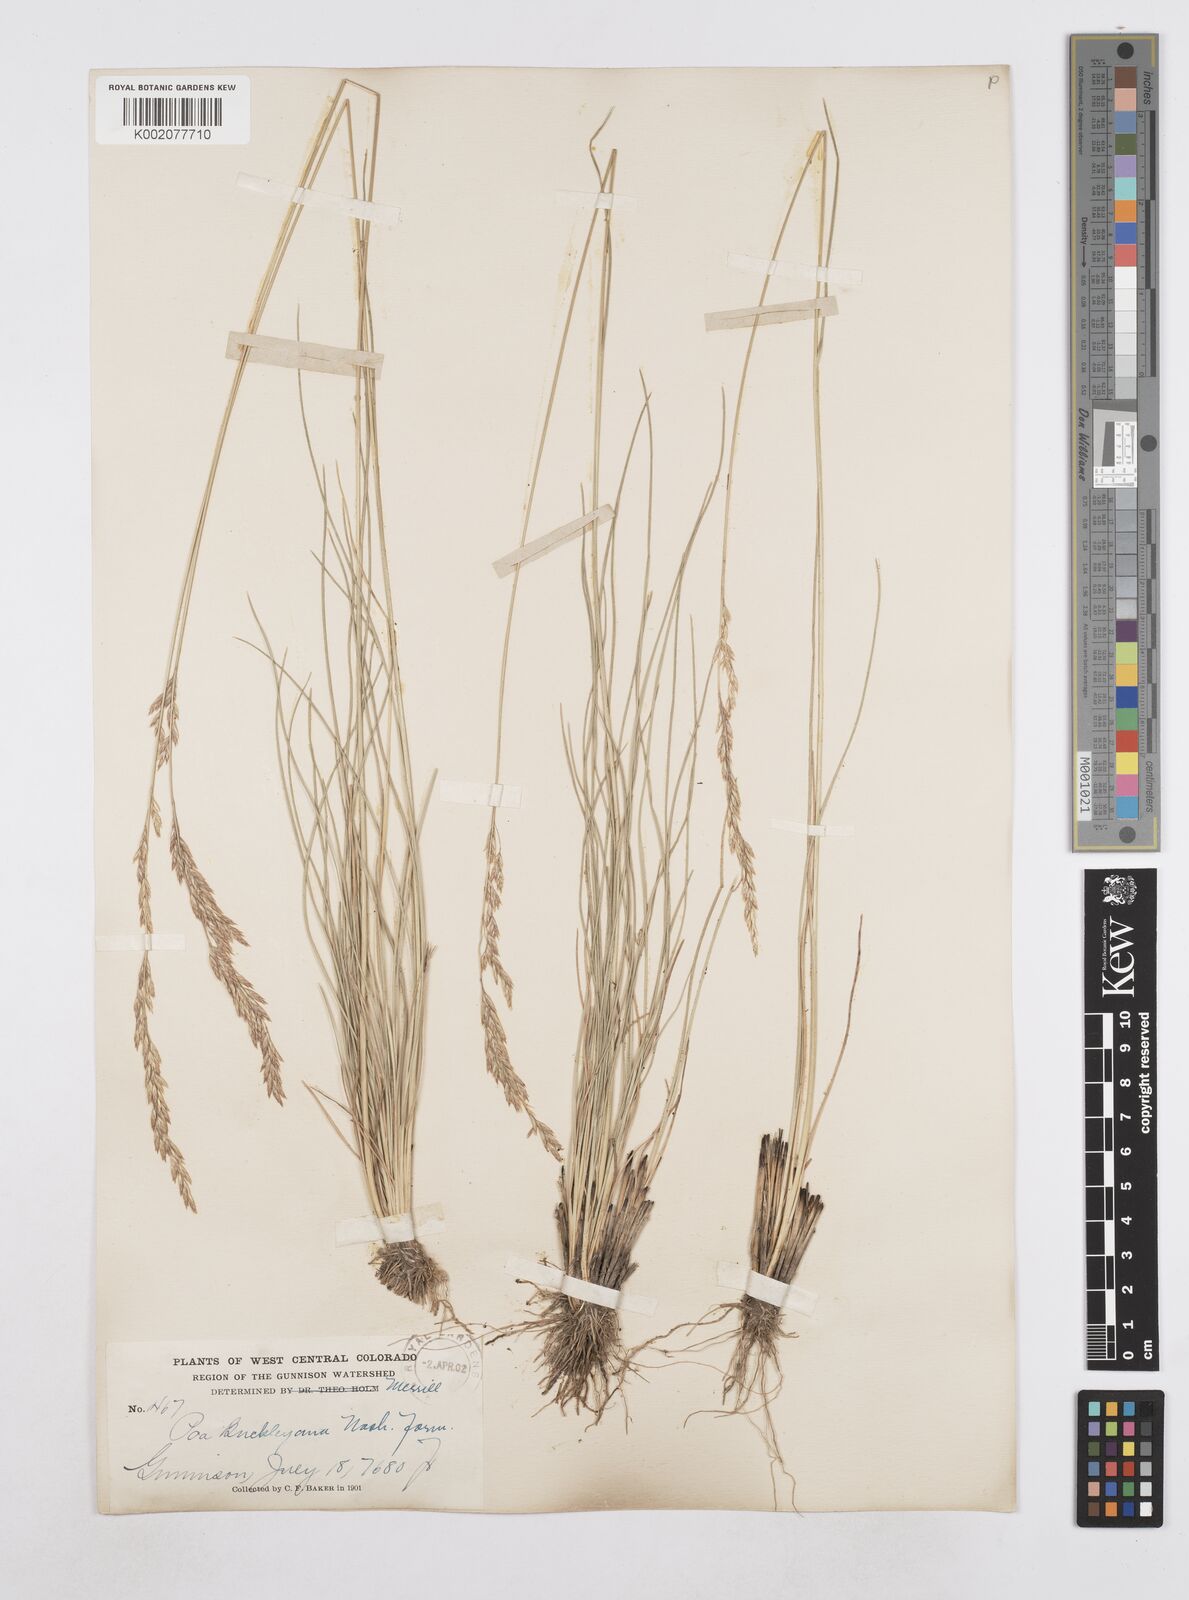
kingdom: Plantae
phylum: Tracheophyta
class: Liliopsida
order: Poales
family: Poaceae
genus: Poa
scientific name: Poa secunda
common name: Sandberg bluegrass
